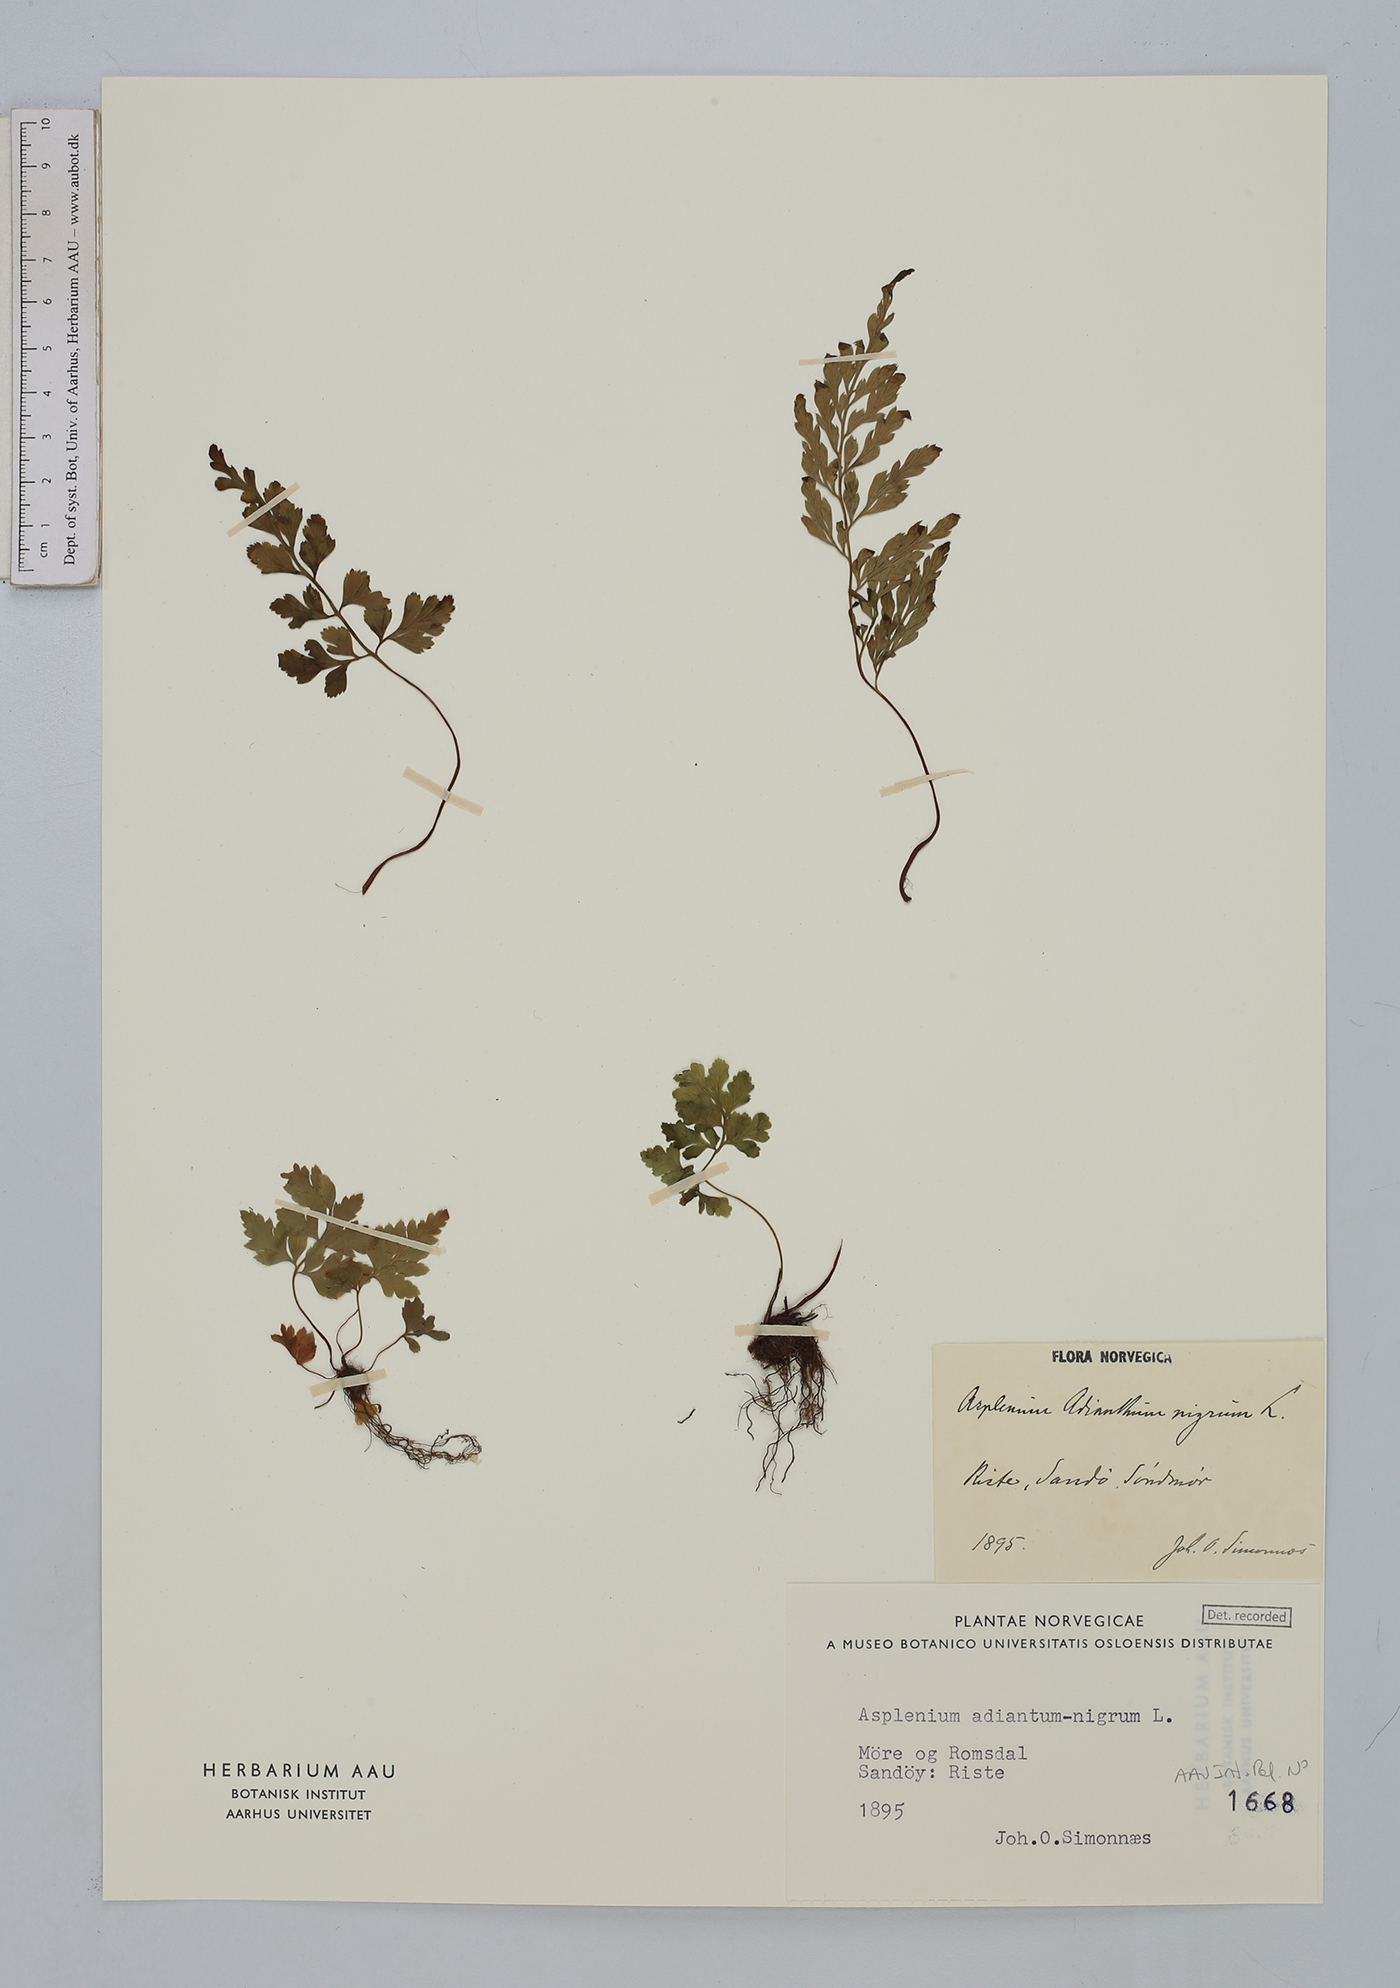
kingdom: Plantae
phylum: Tracheophyta
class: Polypodiopsida
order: Polypodiales
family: Aspleniaceae
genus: Asplenium
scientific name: Asplenium adiantum-nigrum
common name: Black spleenwort
